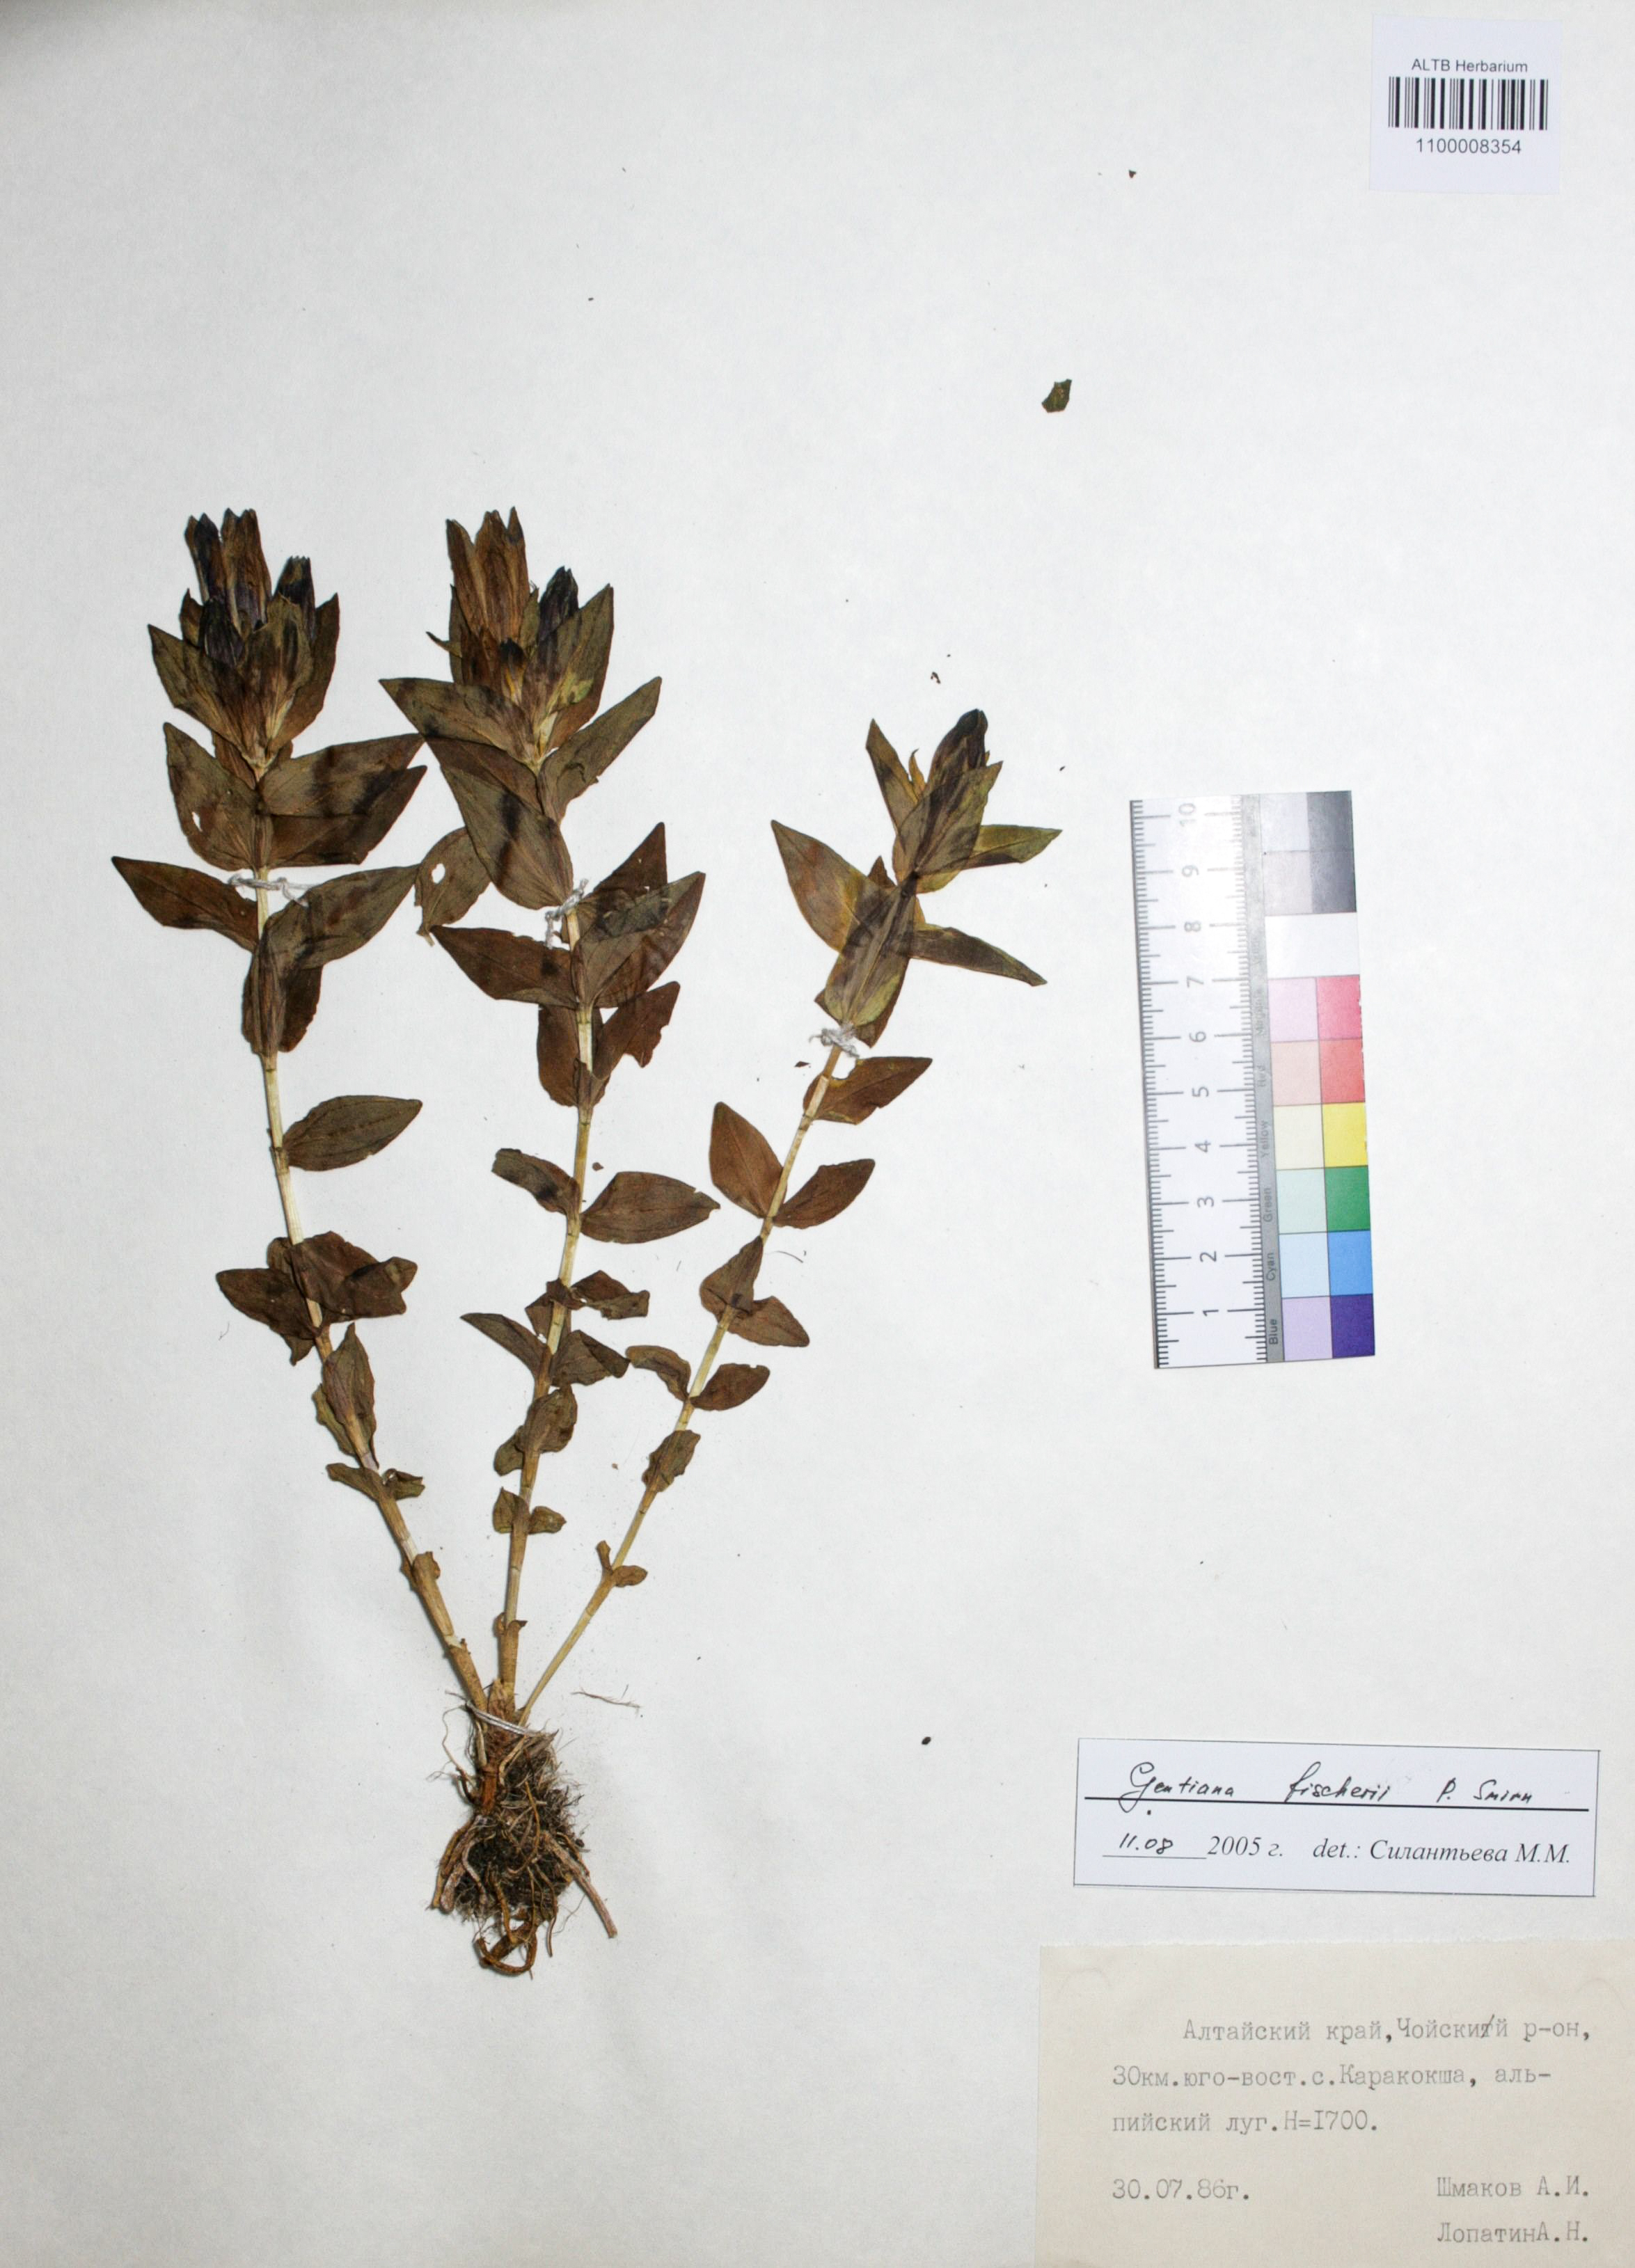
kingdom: Plantae
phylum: Tracheophyta
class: Magnoliopsida
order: Gentianales
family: Gentianaceae
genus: Gentiana
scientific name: Gentiana grandiflora
